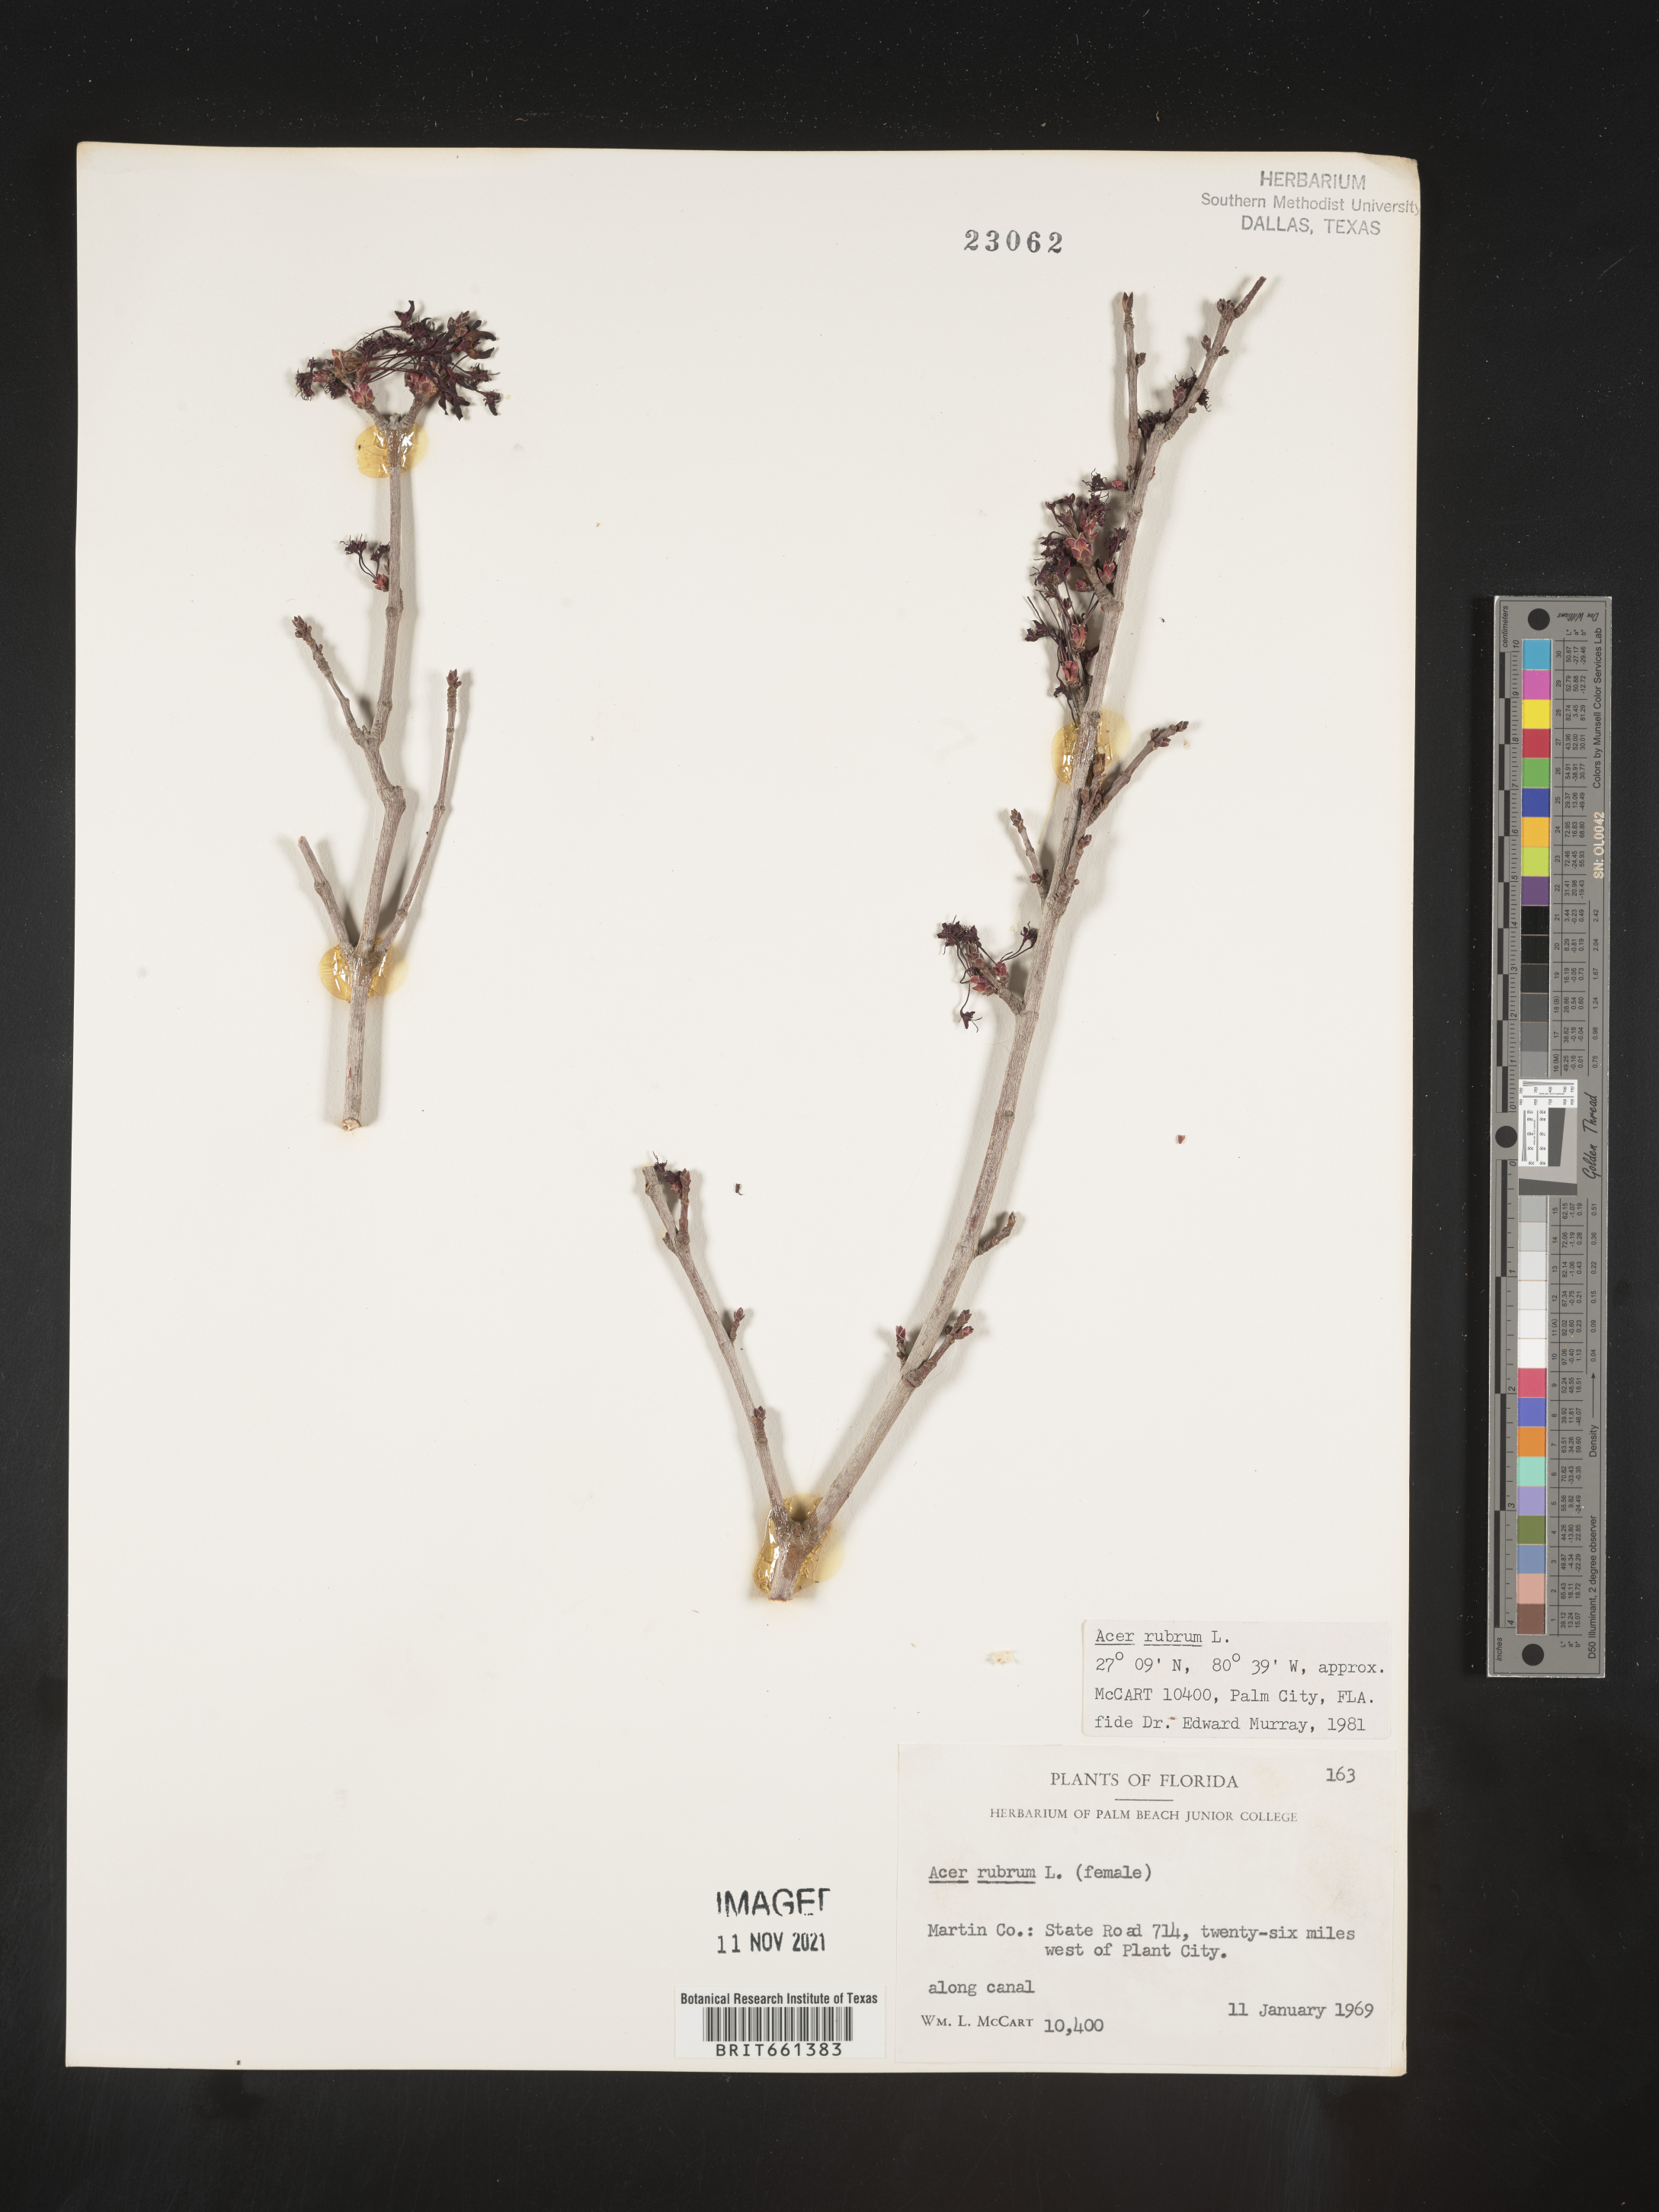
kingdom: Plantae
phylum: Tracheophyta
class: Magnoliopsida
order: Sapindales
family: Sapindaceae
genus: Acer
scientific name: Acer rubrum
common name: Red maple
